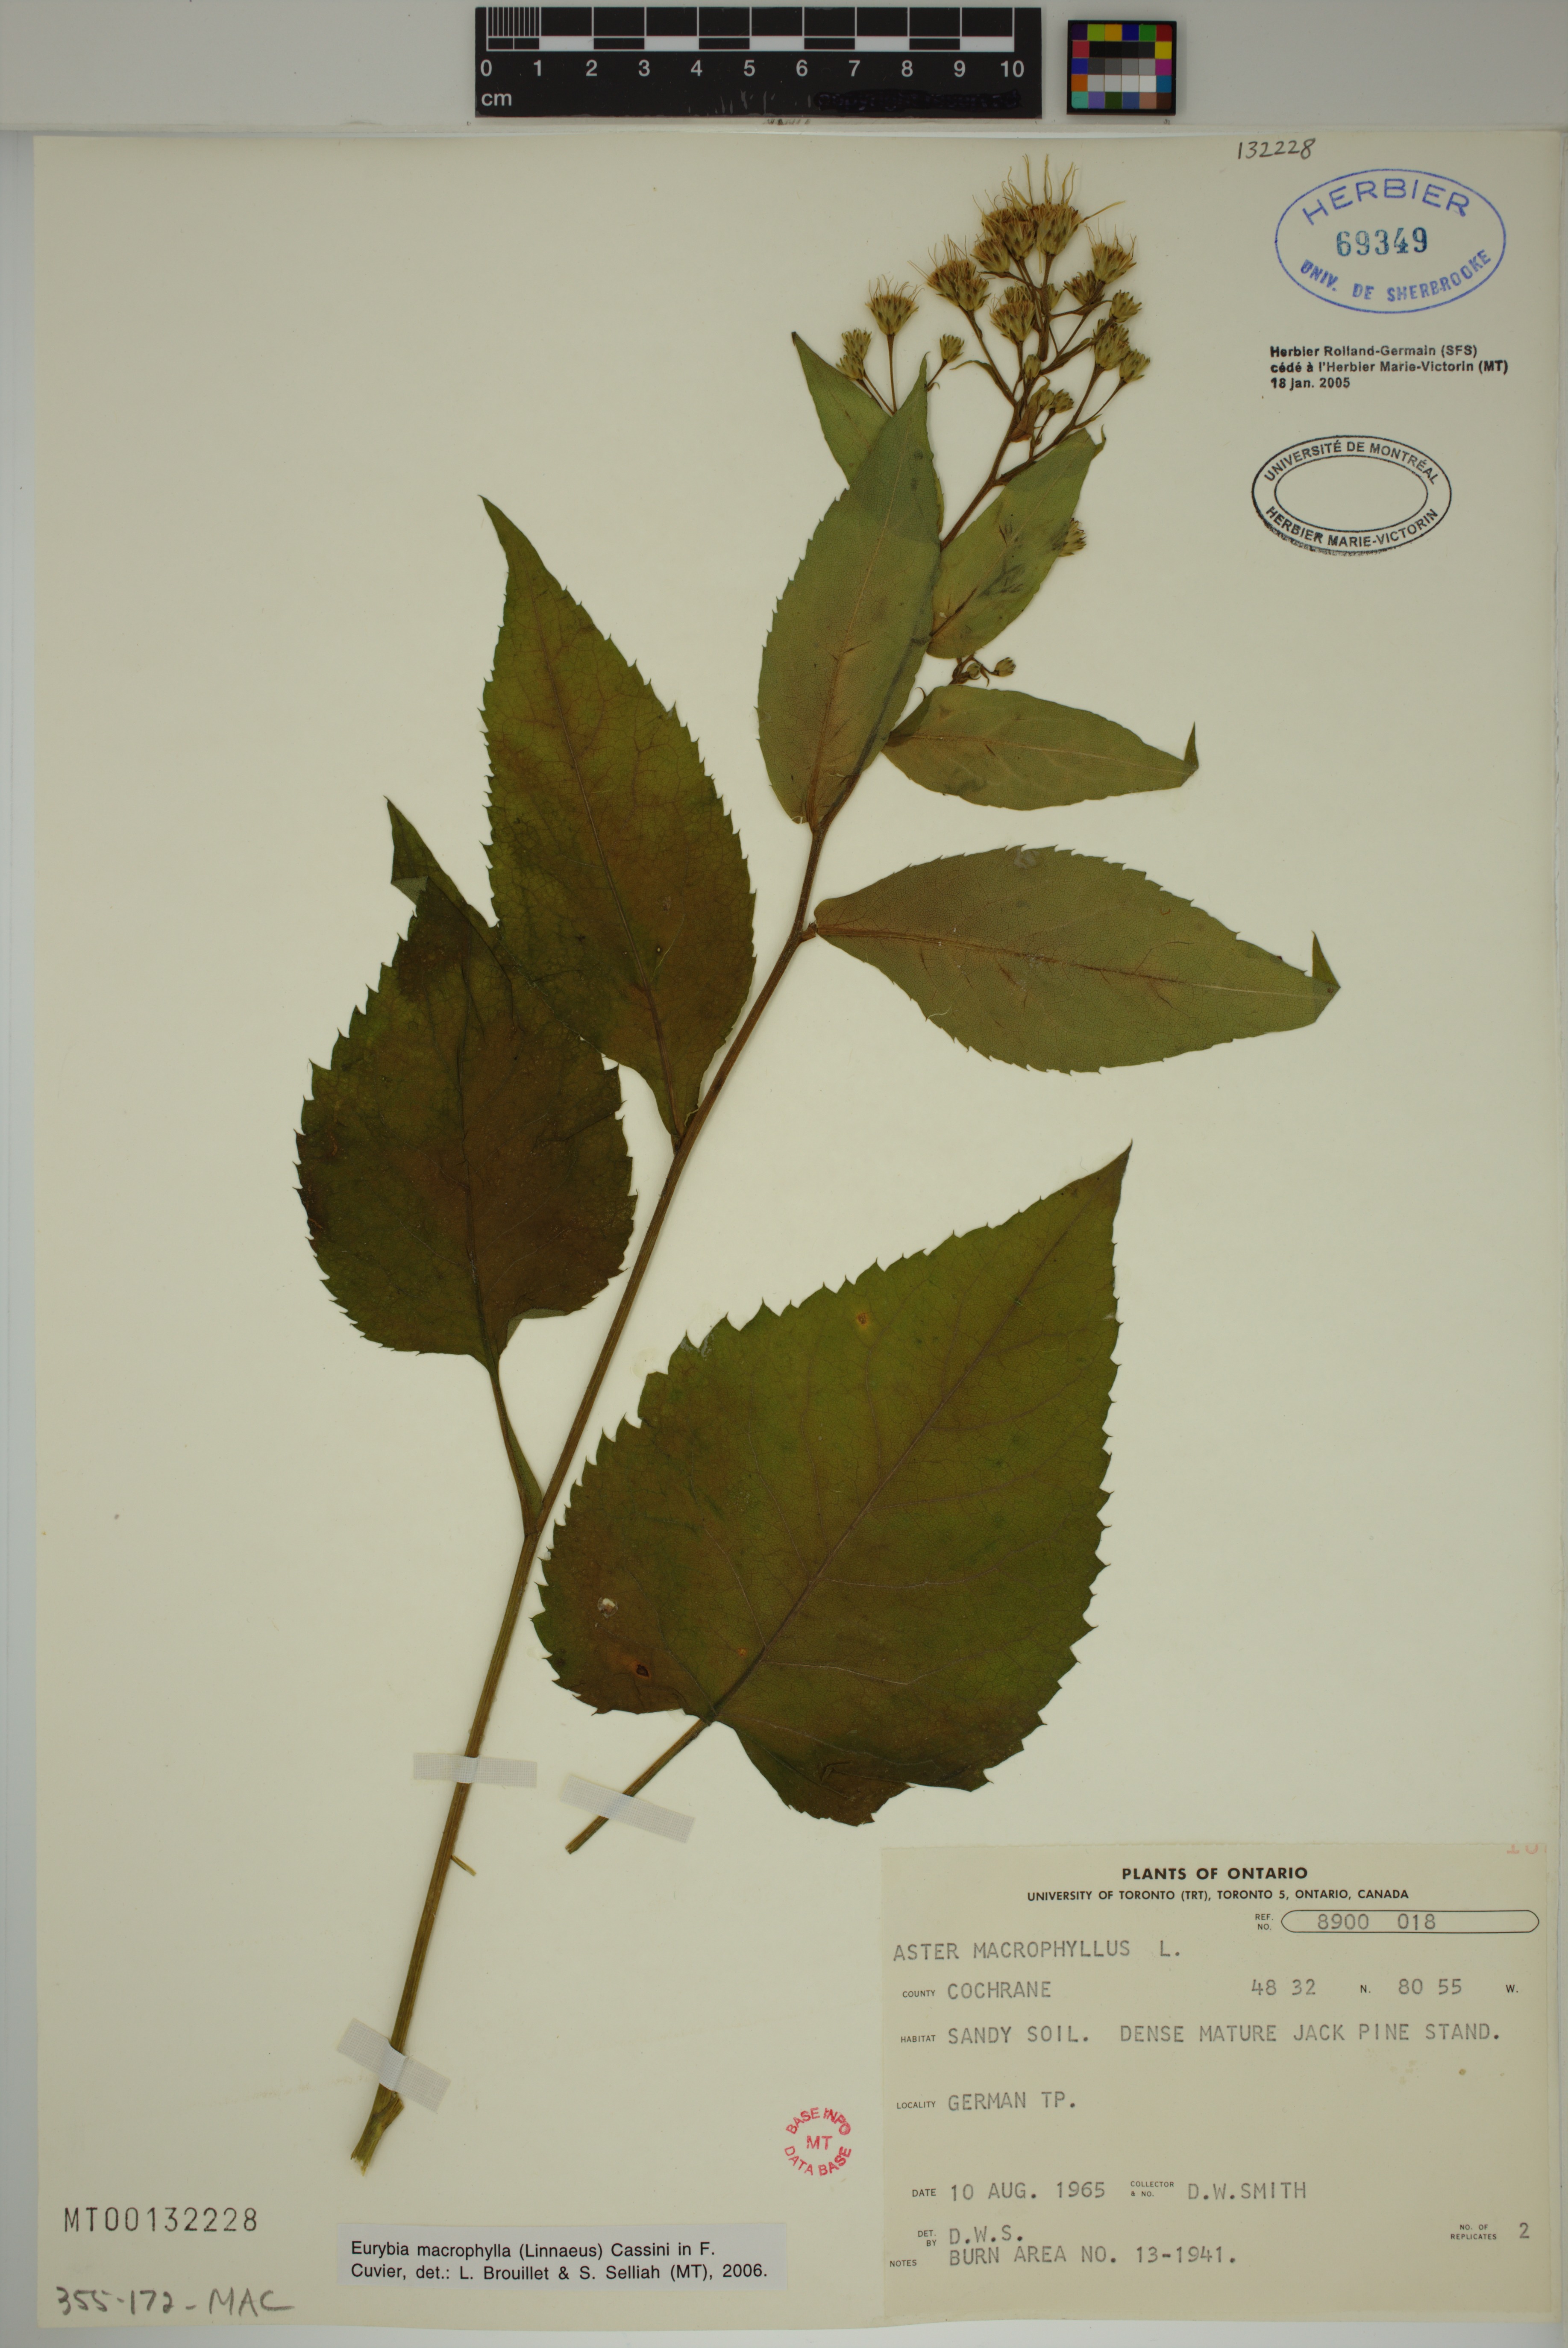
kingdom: Plantae
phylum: Tracheophyta
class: Magnoliopsida
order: Asterales
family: Asteraceae
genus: Eurybia
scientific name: Eurybia macrophylla
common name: Big-leaved aster
